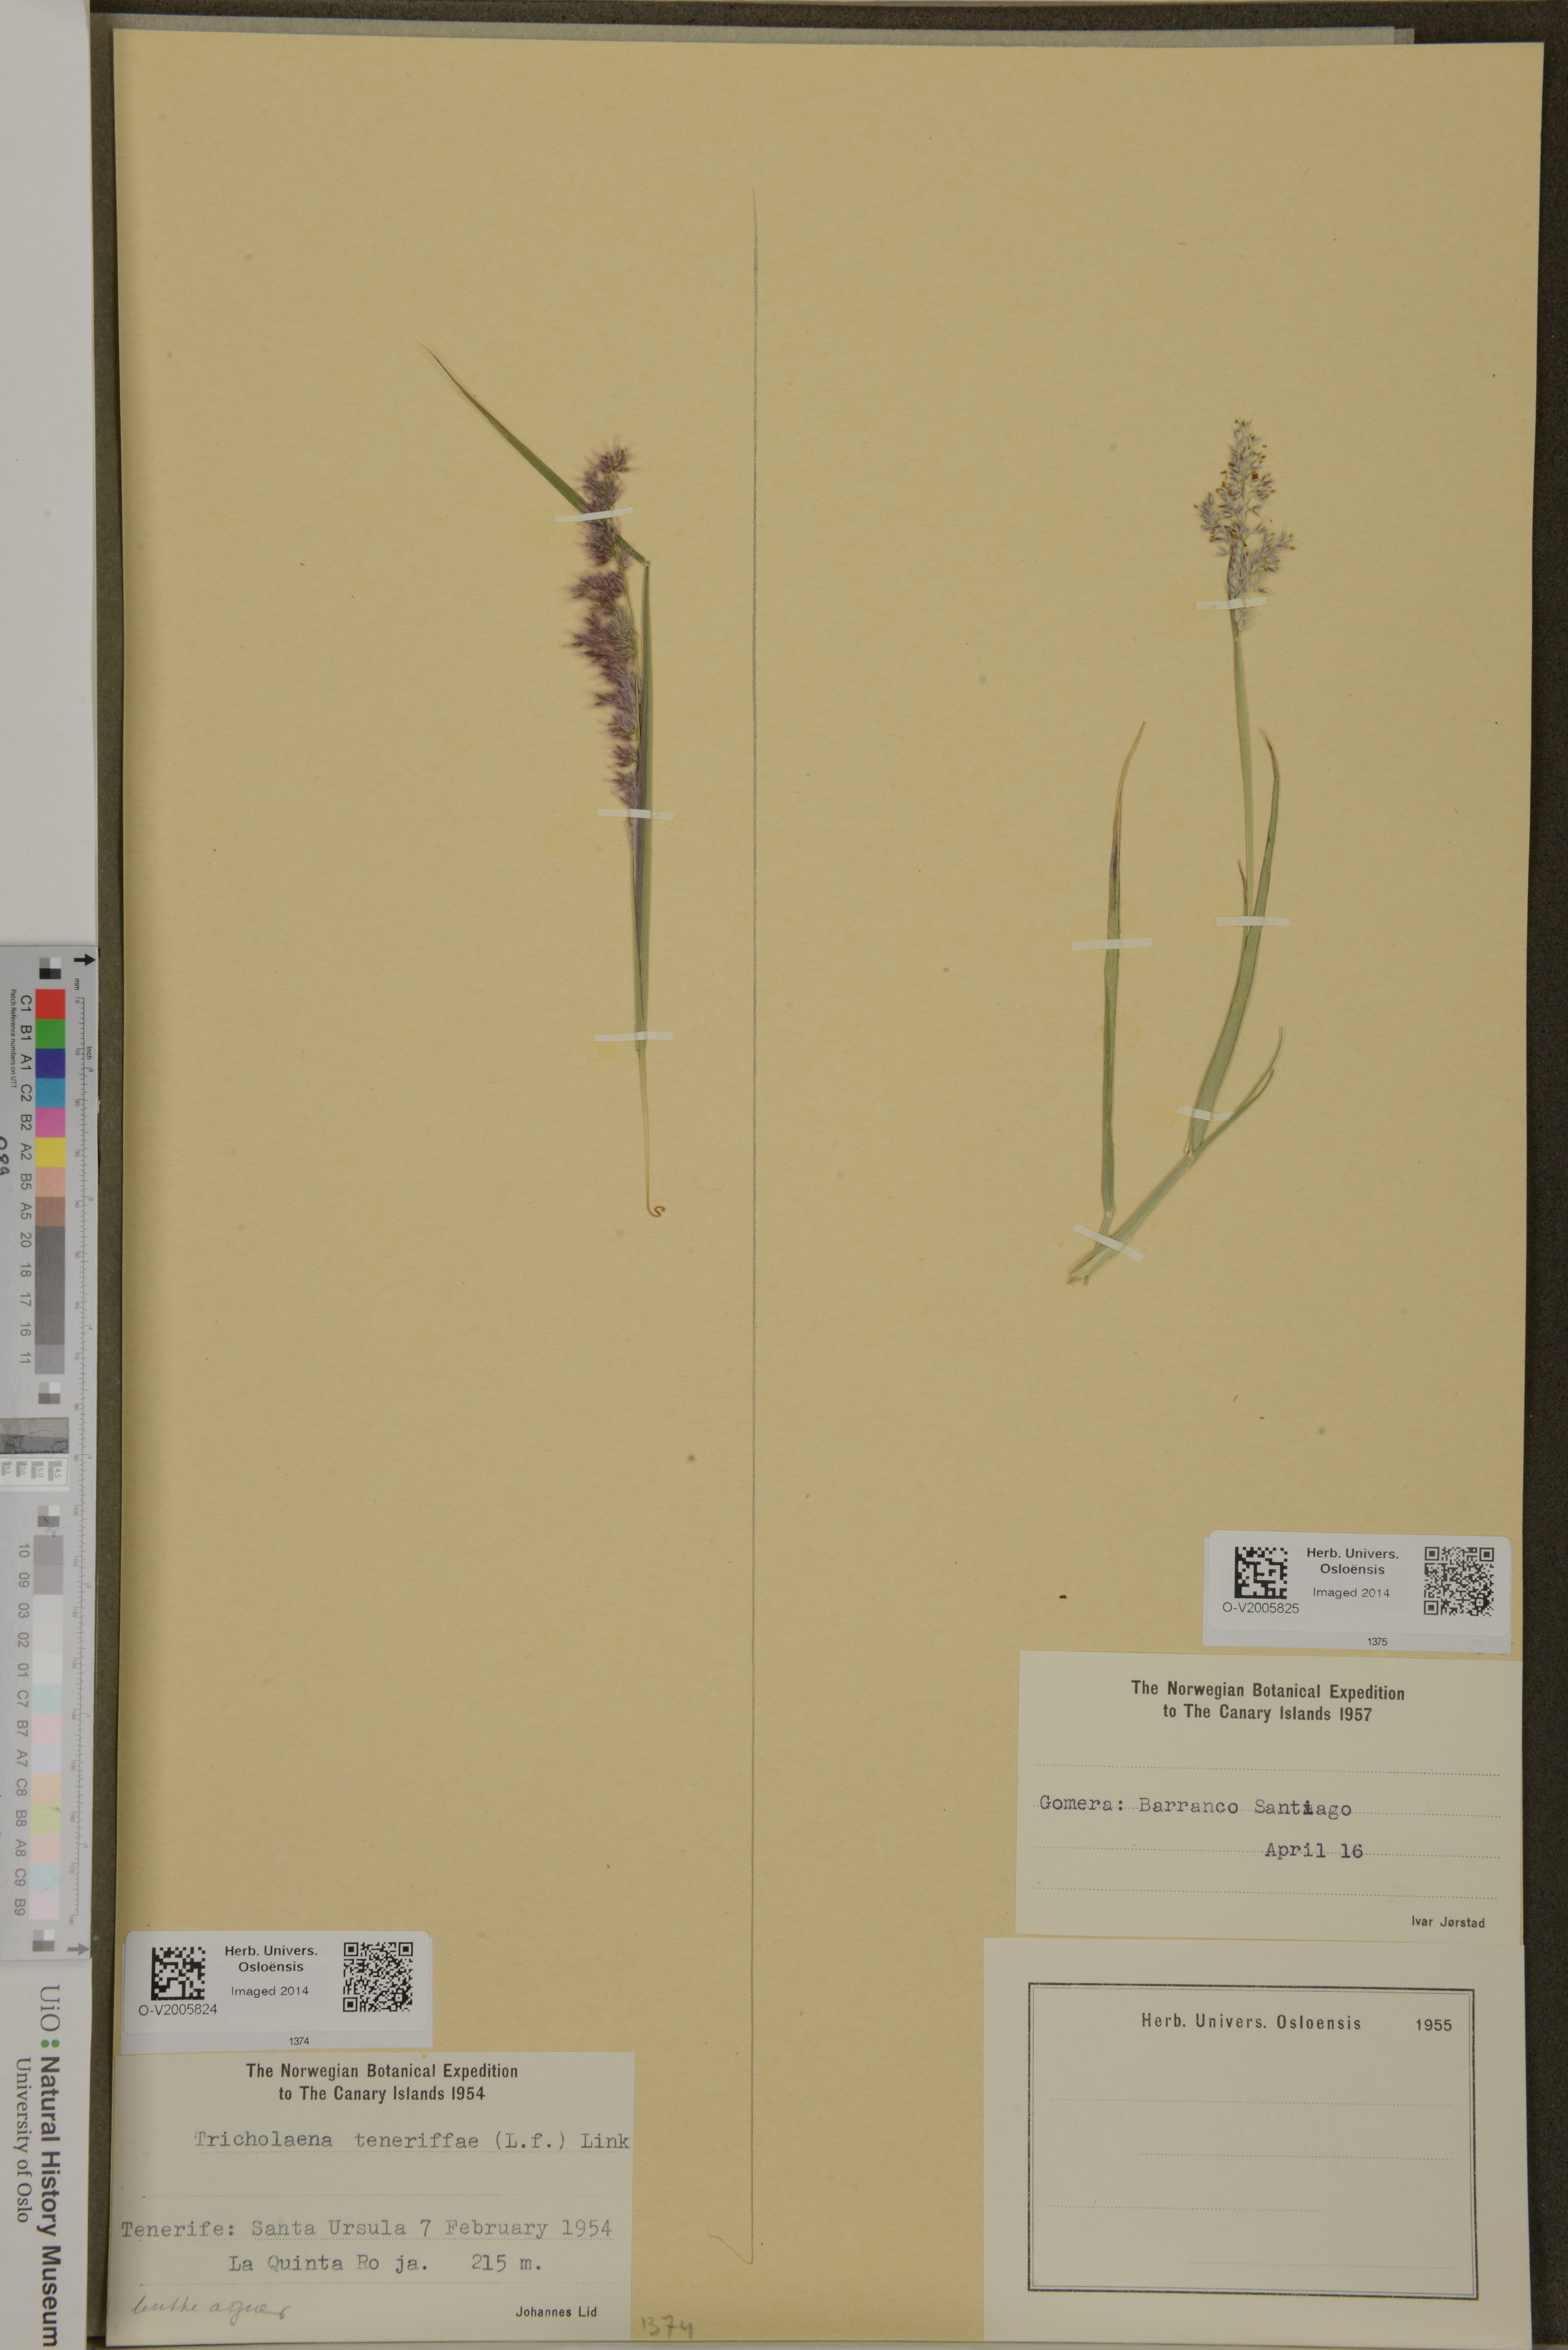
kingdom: Plantae
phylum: Tracheophyta
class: Liliopsida
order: Poales
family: Poaceae
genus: Tricholaena
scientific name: Tricholaena teneriffae
